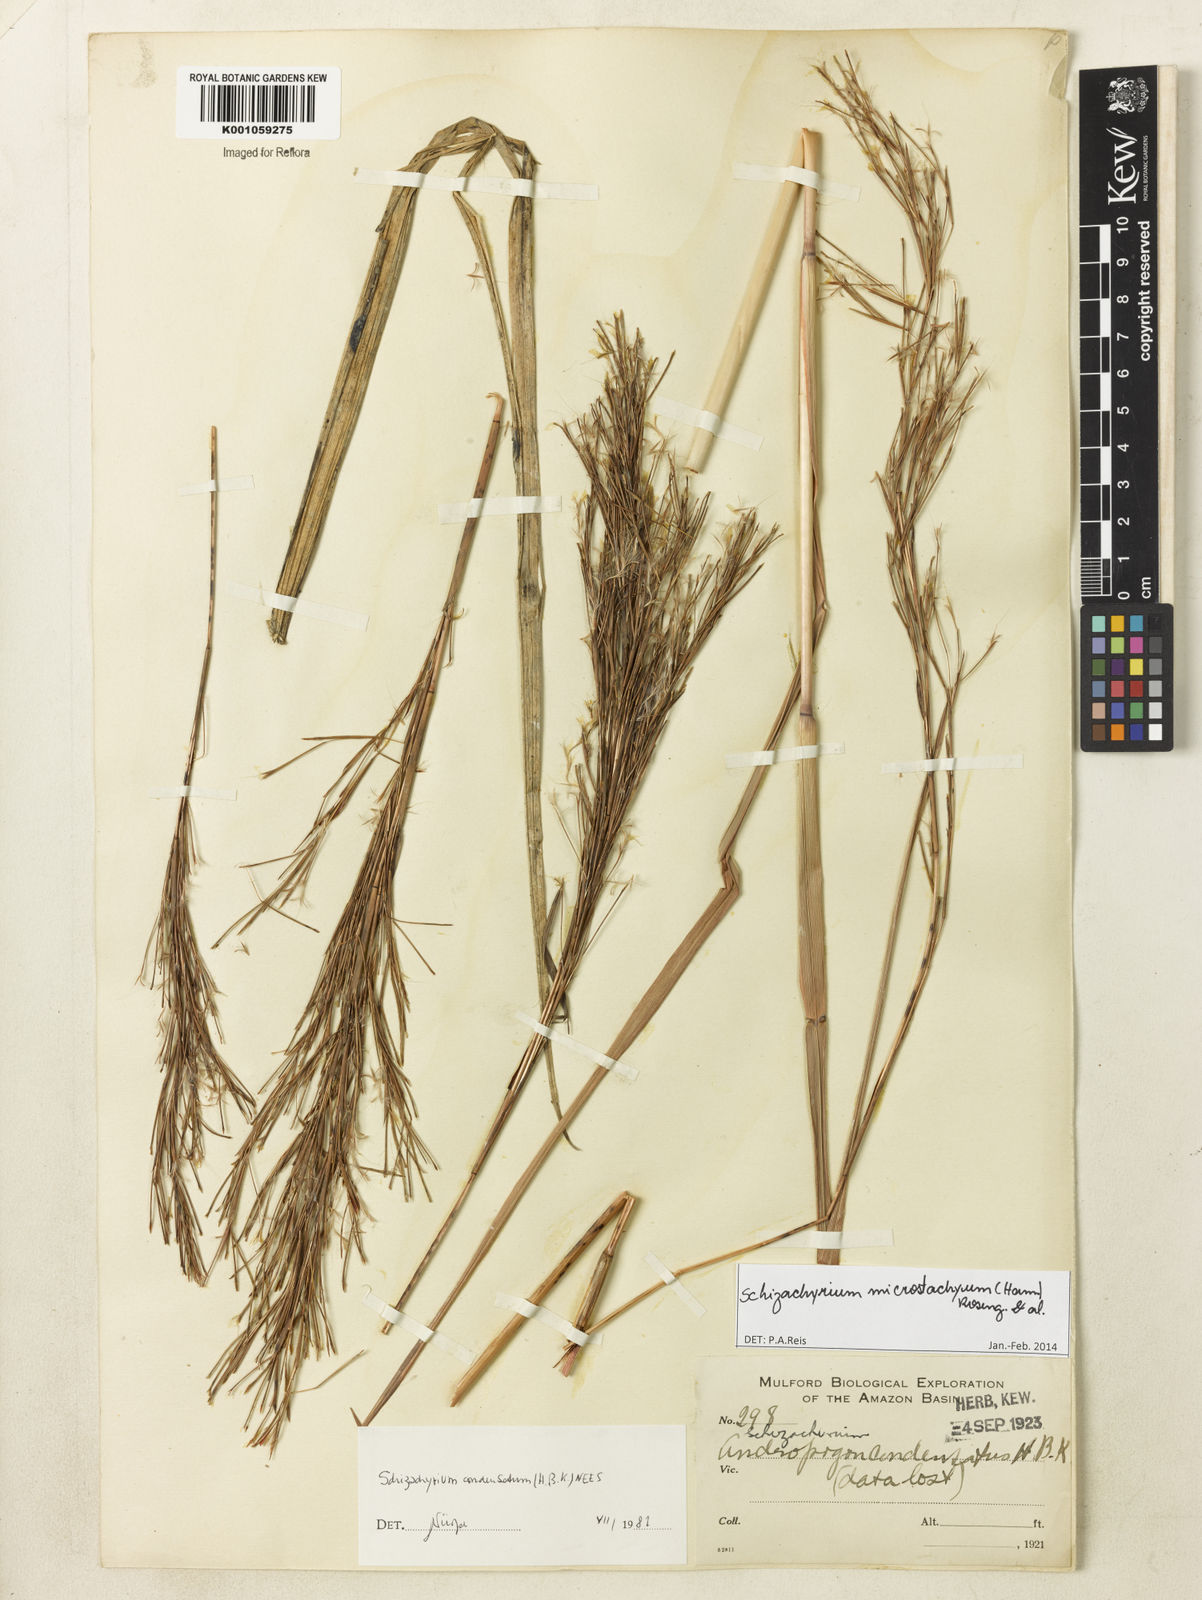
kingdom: Plantae
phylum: Tracheophyta
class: Liliopsida
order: Poales
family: Poaceae
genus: Schizachyrium
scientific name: Schizachyrium
